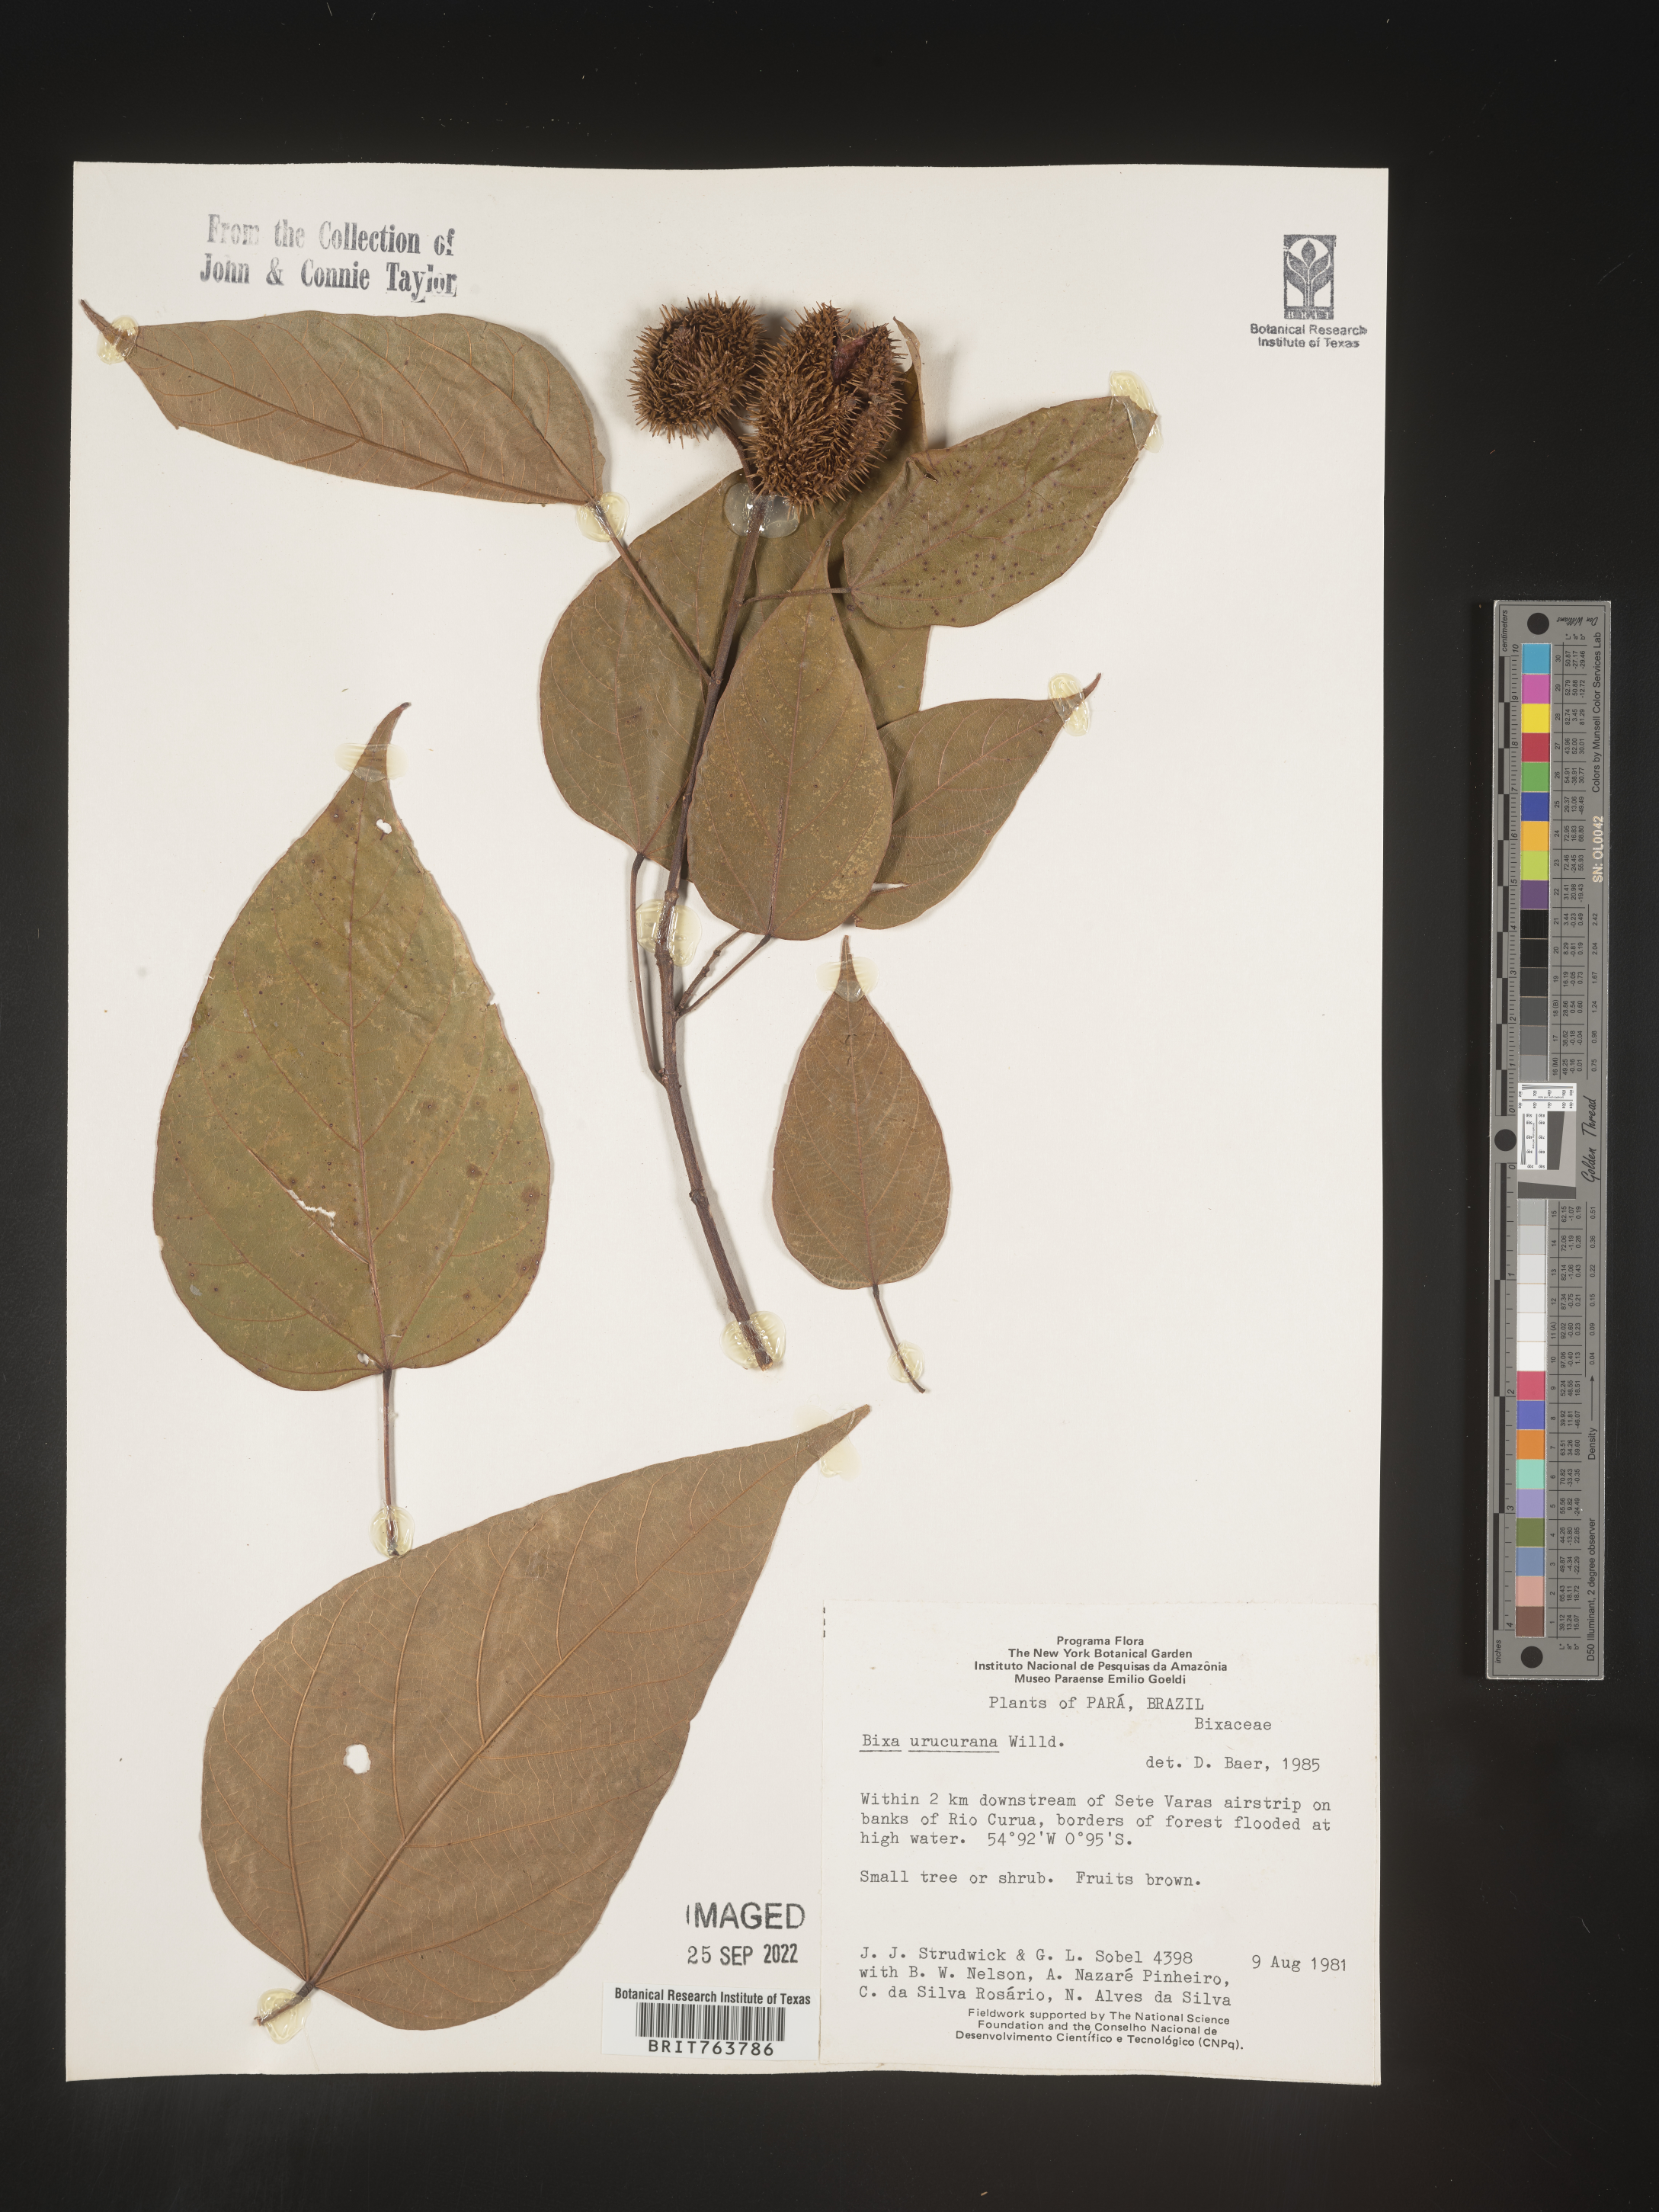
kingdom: Plantae
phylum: Tracheophyta
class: Magnoliopsida
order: Malvales
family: Bixaceae
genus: Bixa
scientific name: Bixa
